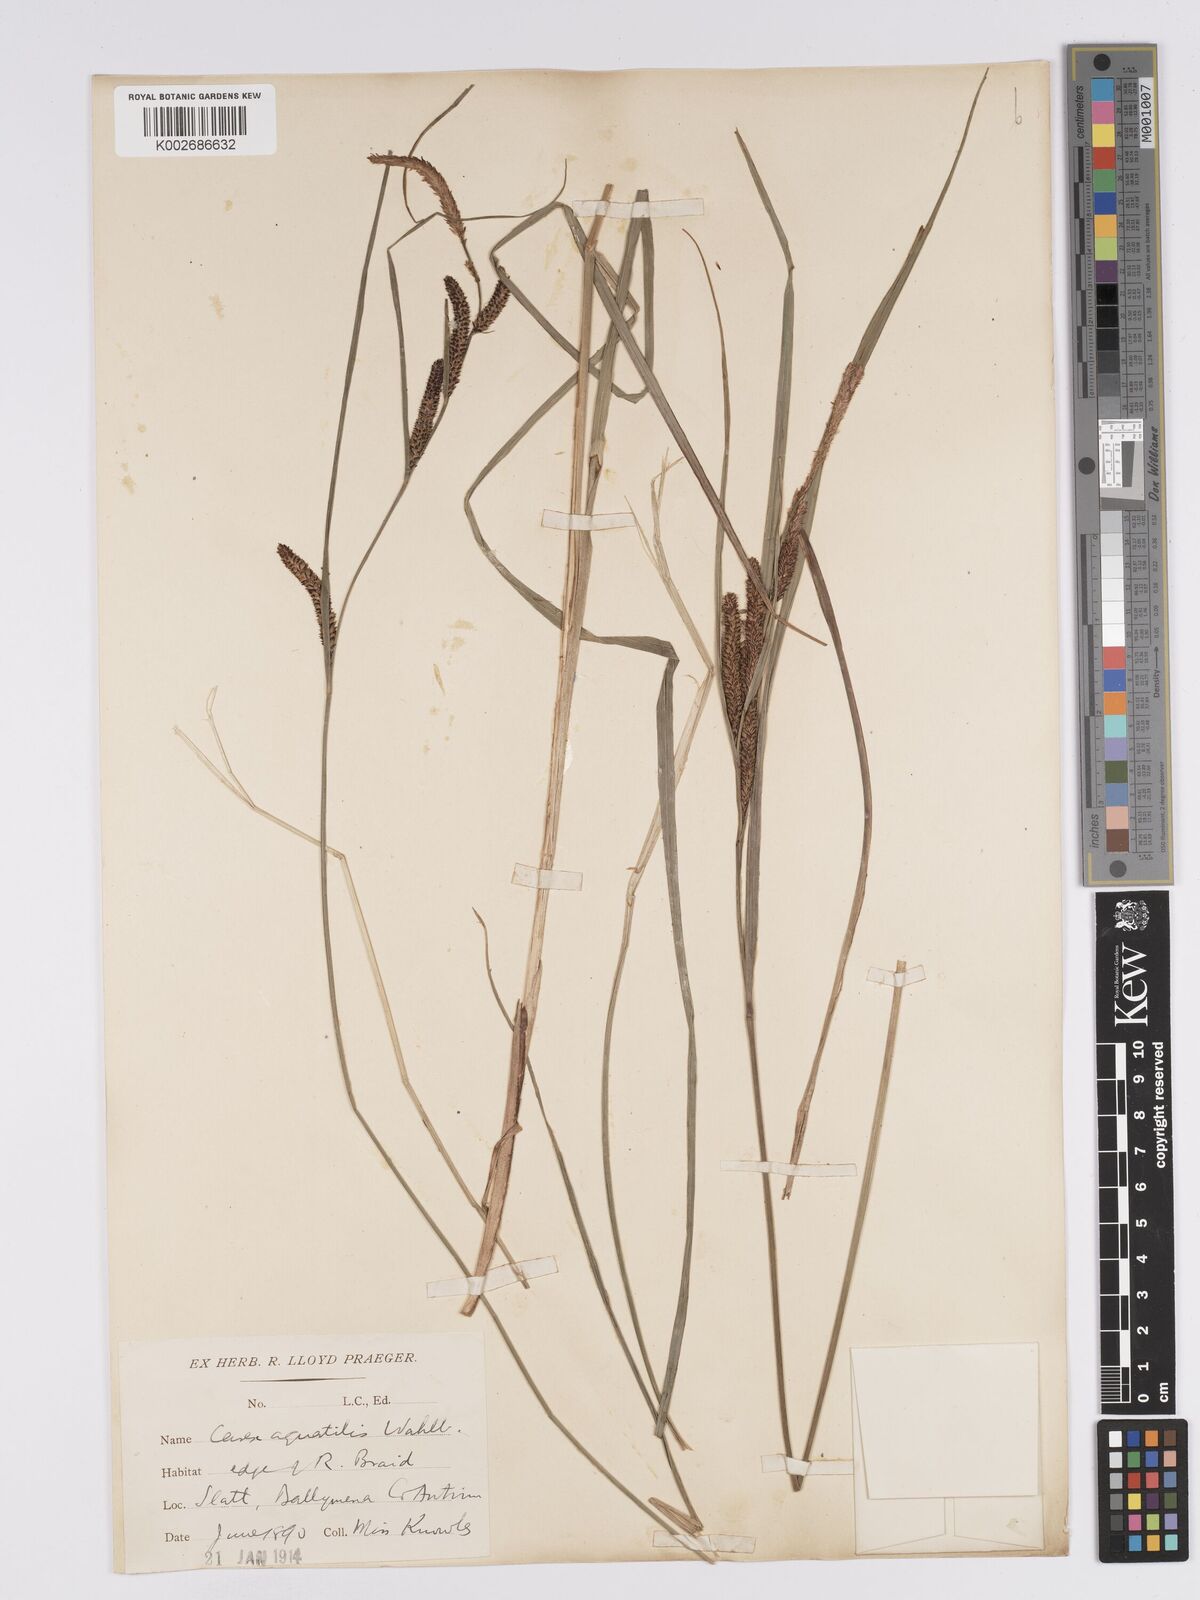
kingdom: Plantae
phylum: Tracheophyta
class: Liliopsida
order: Poales
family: Cyperaceae
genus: Carex
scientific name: Carex aquatilis
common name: Water sedge
